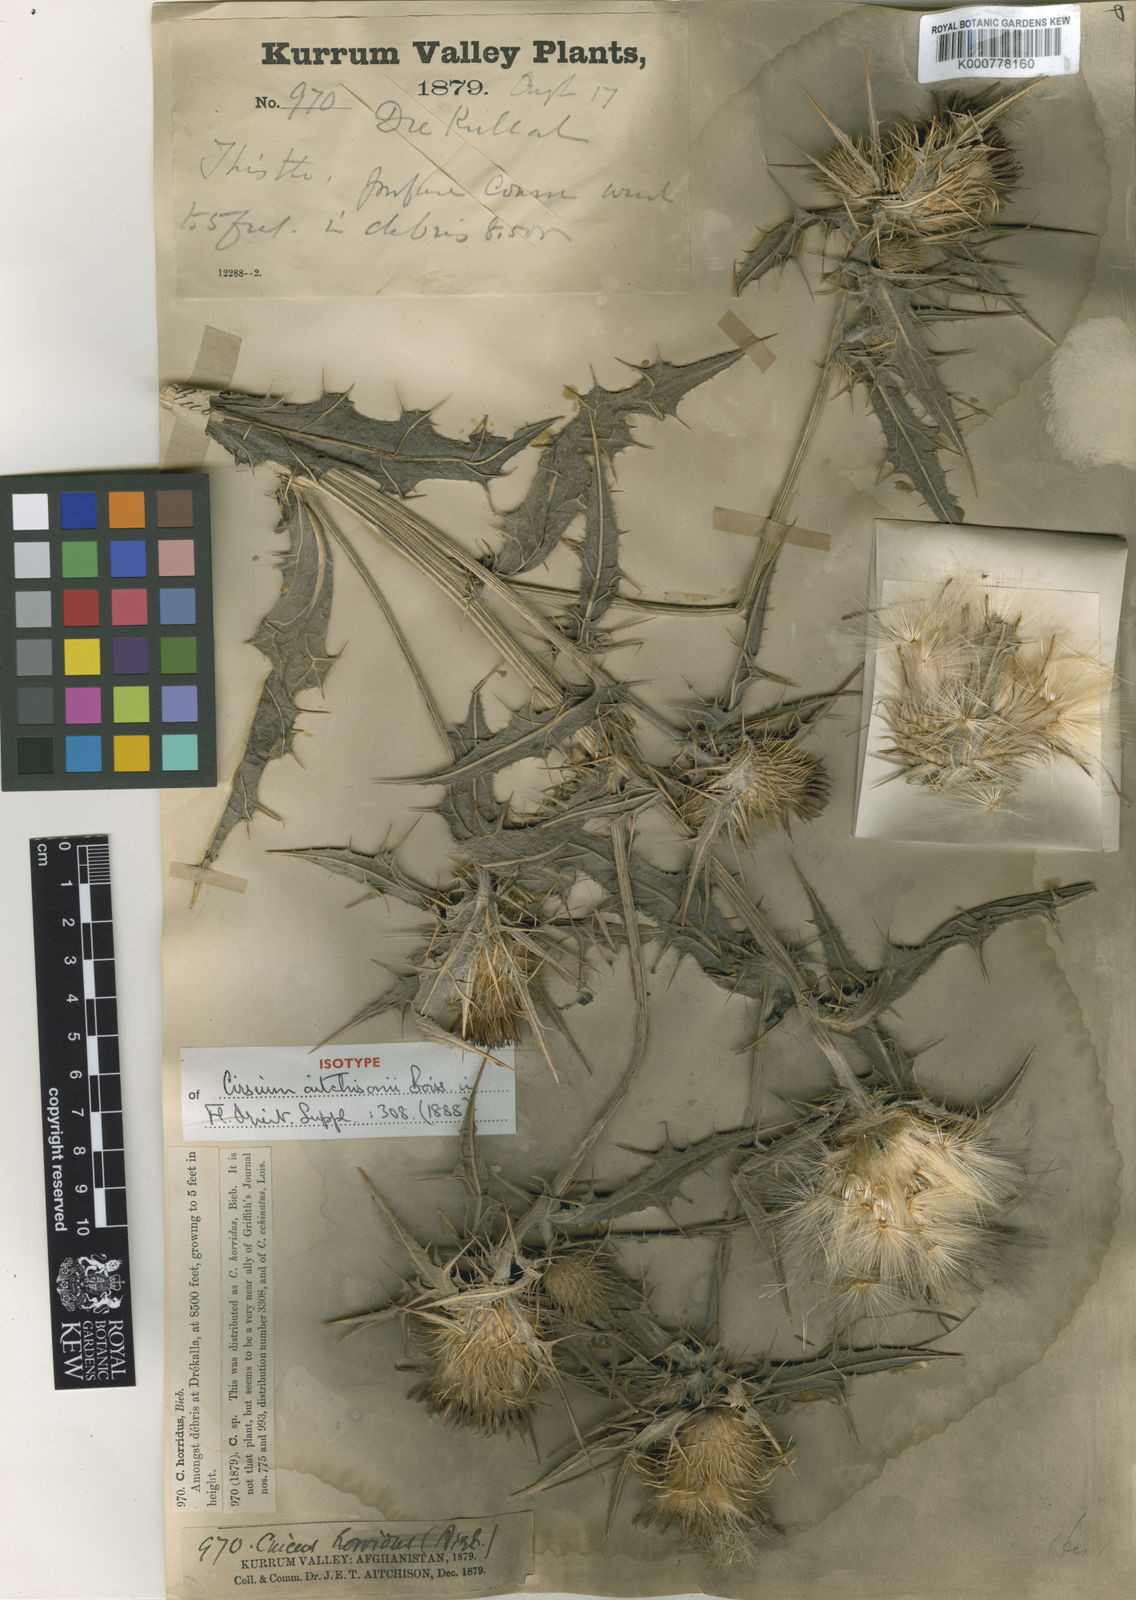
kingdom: Plantae
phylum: Tracheophyta
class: Magnoliopsida
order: Asterales
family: Asteraceae
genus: Lophiolepis
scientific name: Lophiolepis aitchisonii
